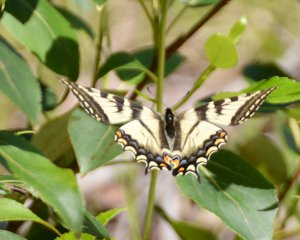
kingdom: Animalia
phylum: Arthropoda
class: Insecta
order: Lepidoptera
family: Papilionidae
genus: Pterourus
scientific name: Pterourus canadensis
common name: Canadian Tiger Swallowtail
